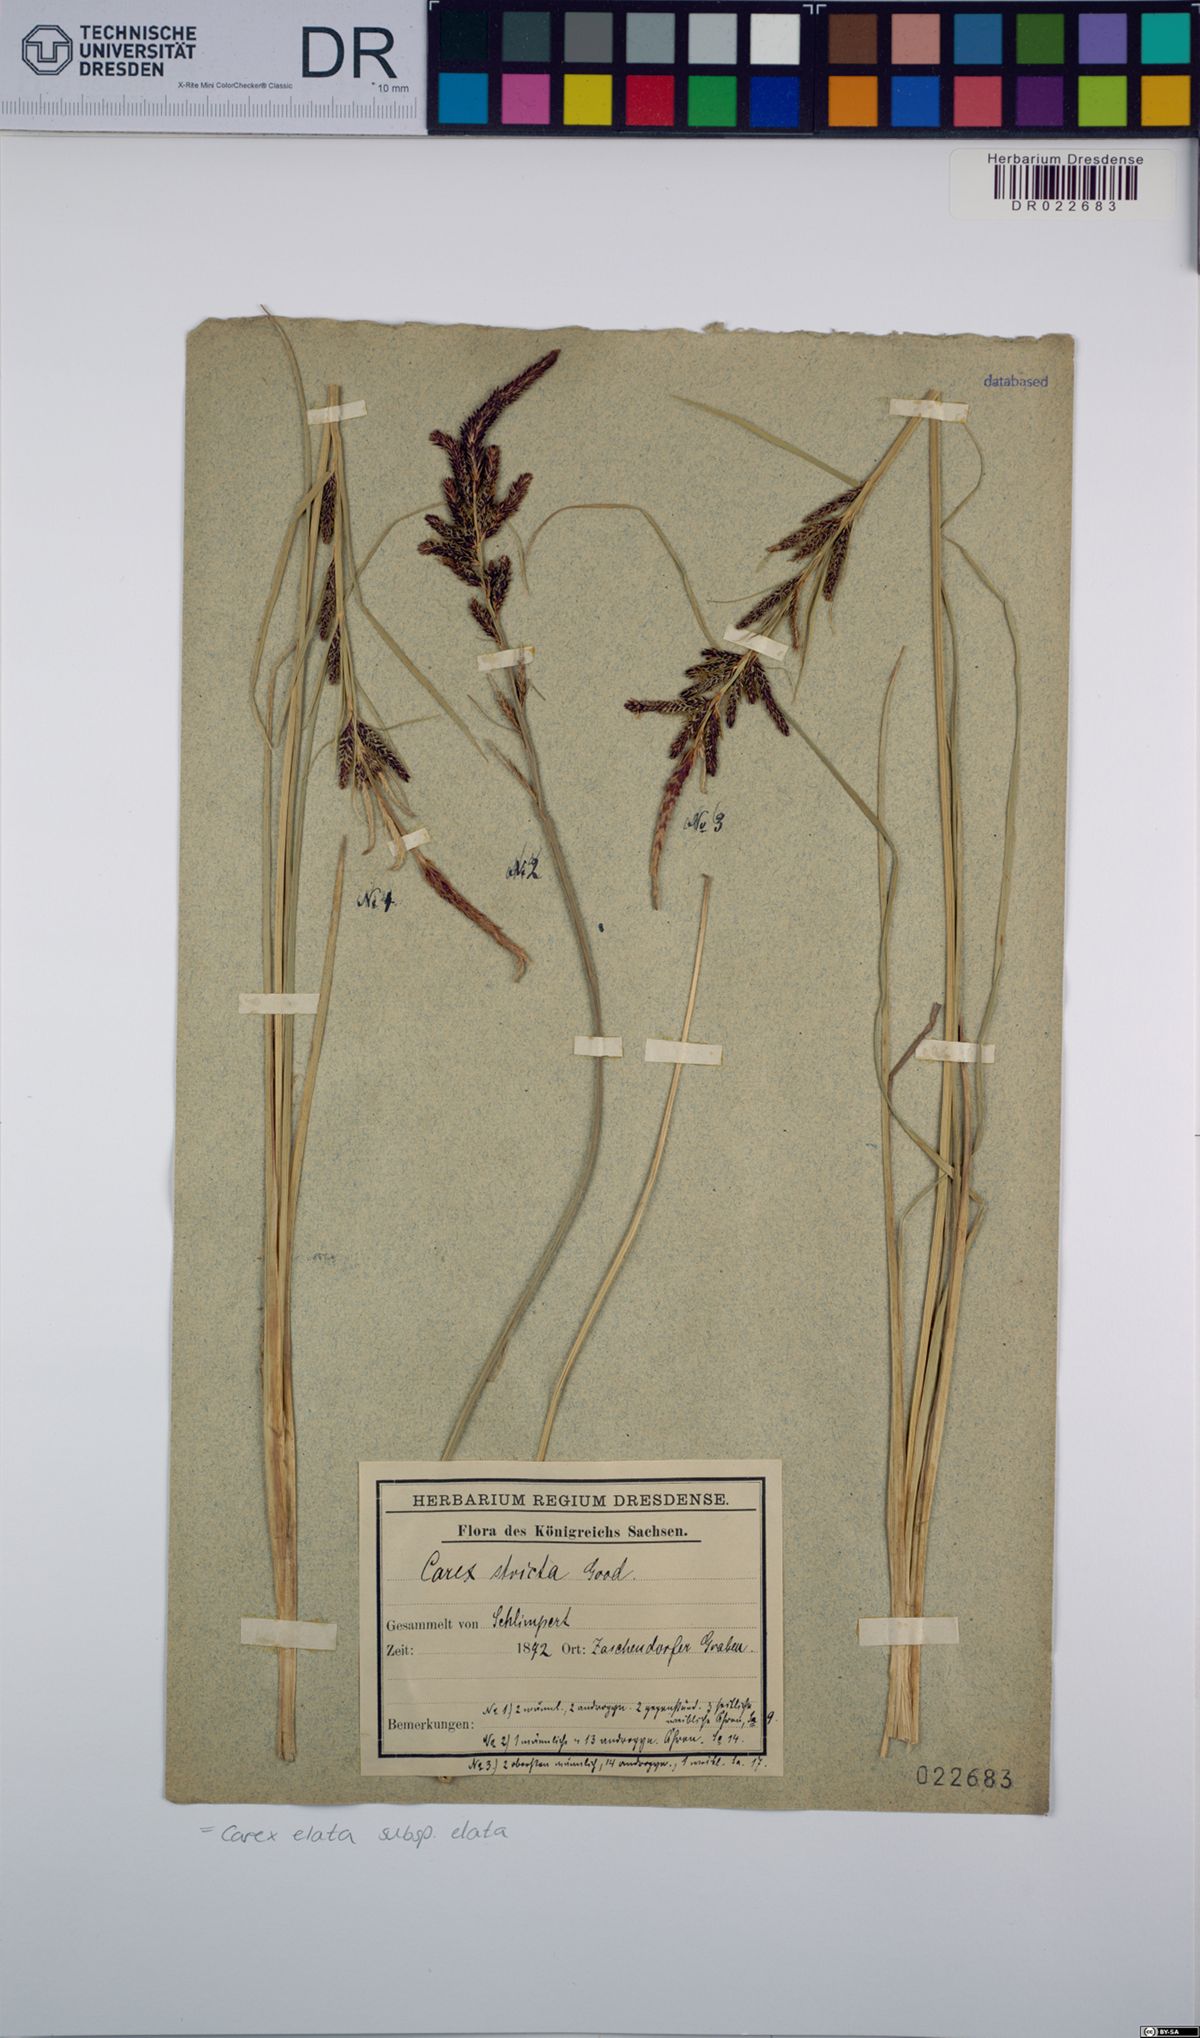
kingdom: Plantae
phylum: Tracheophyta
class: Liliopsida
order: Poales
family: Cyperaceae
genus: Carex
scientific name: Carex elata
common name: Tufted sedge
